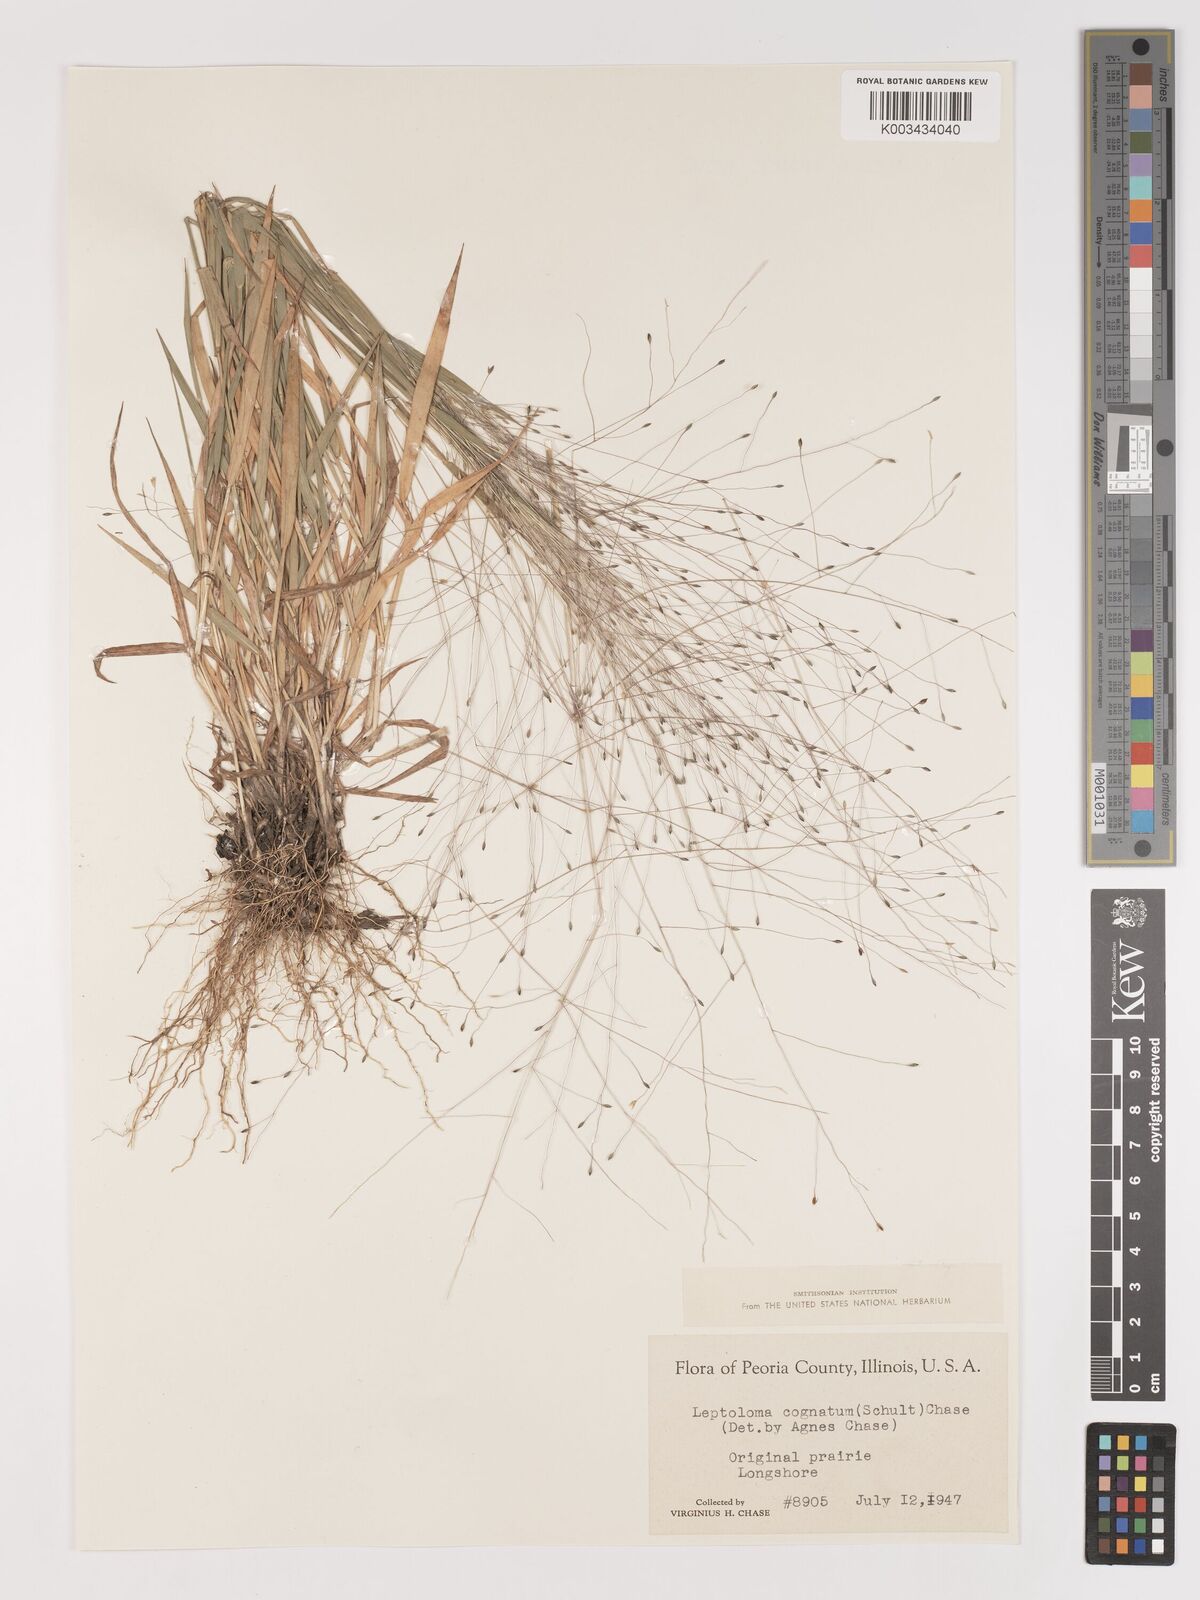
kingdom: Plantae
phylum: Tracheophyta
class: Liliopsida
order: Poales
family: Poaceae
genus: Digitaria
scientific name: Digitaria cognata
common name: Fall witchgrass
